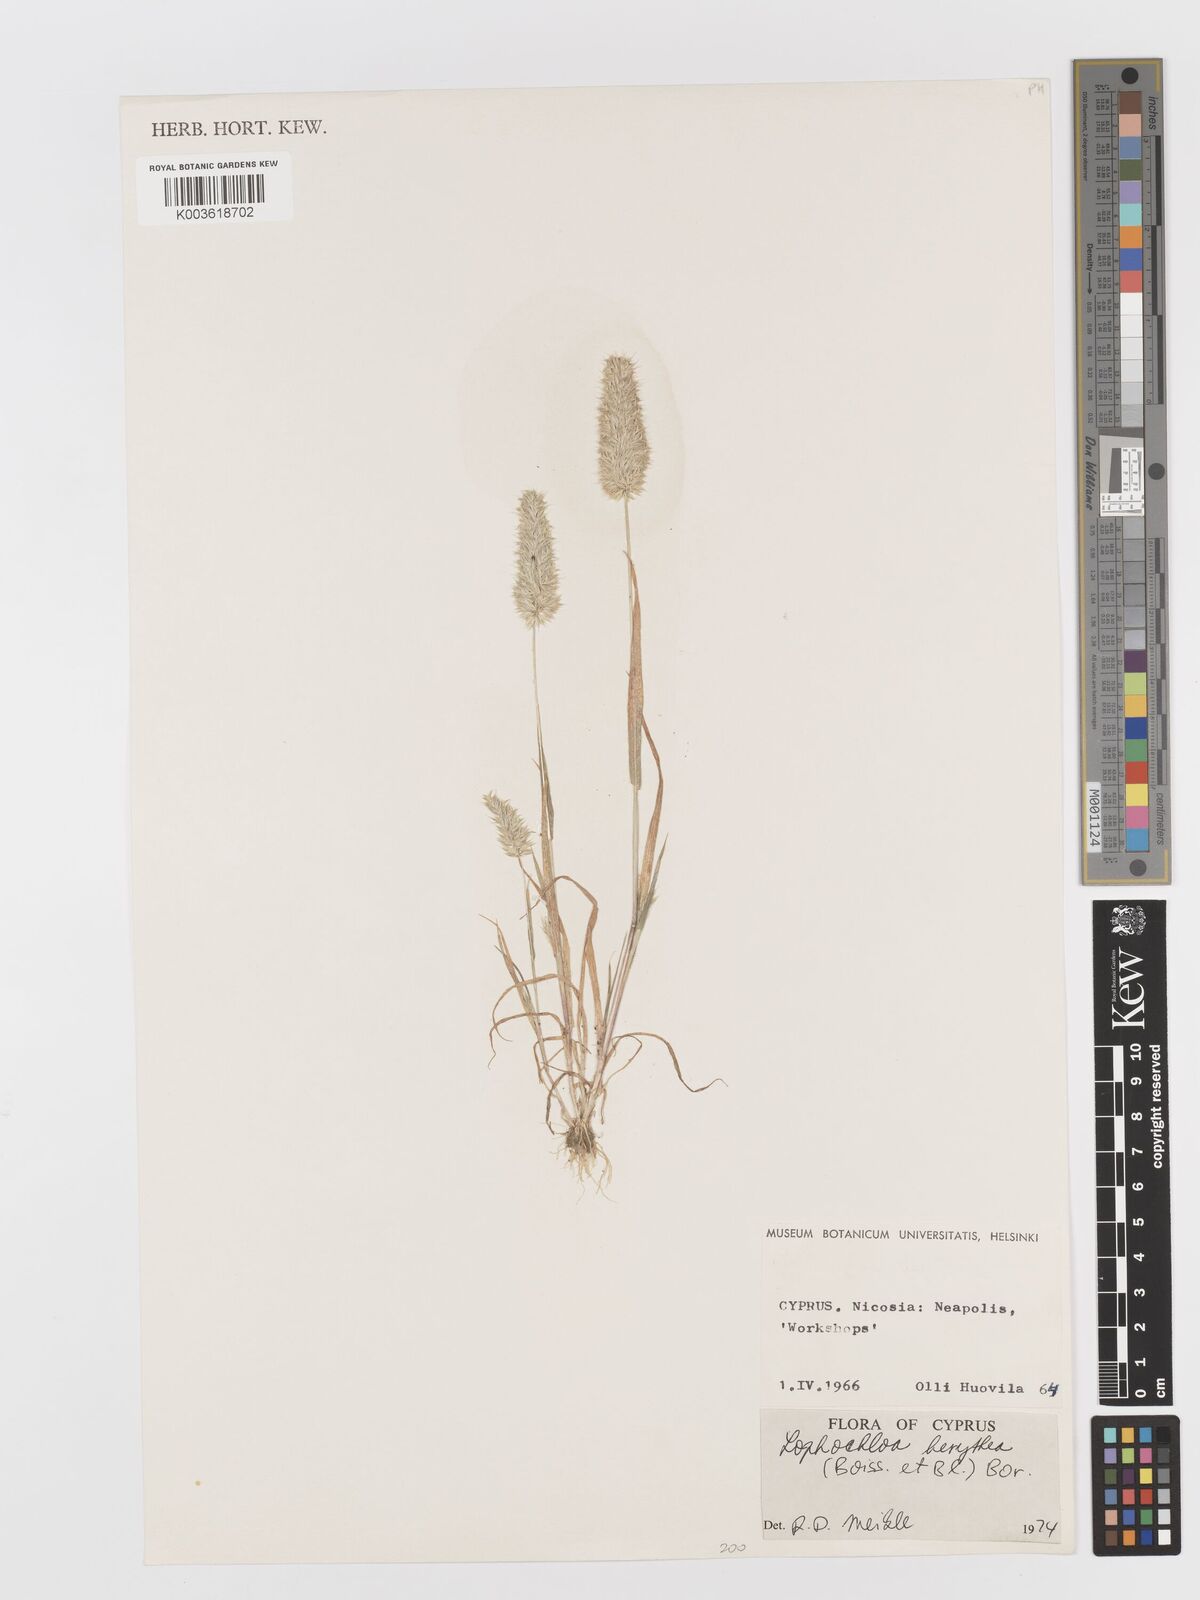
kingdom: Plantae
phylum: Tracheophyta
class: Liliopsida
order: Poales
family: Poaceae
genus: Rostraria
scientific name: Rostraria smyrnaea
